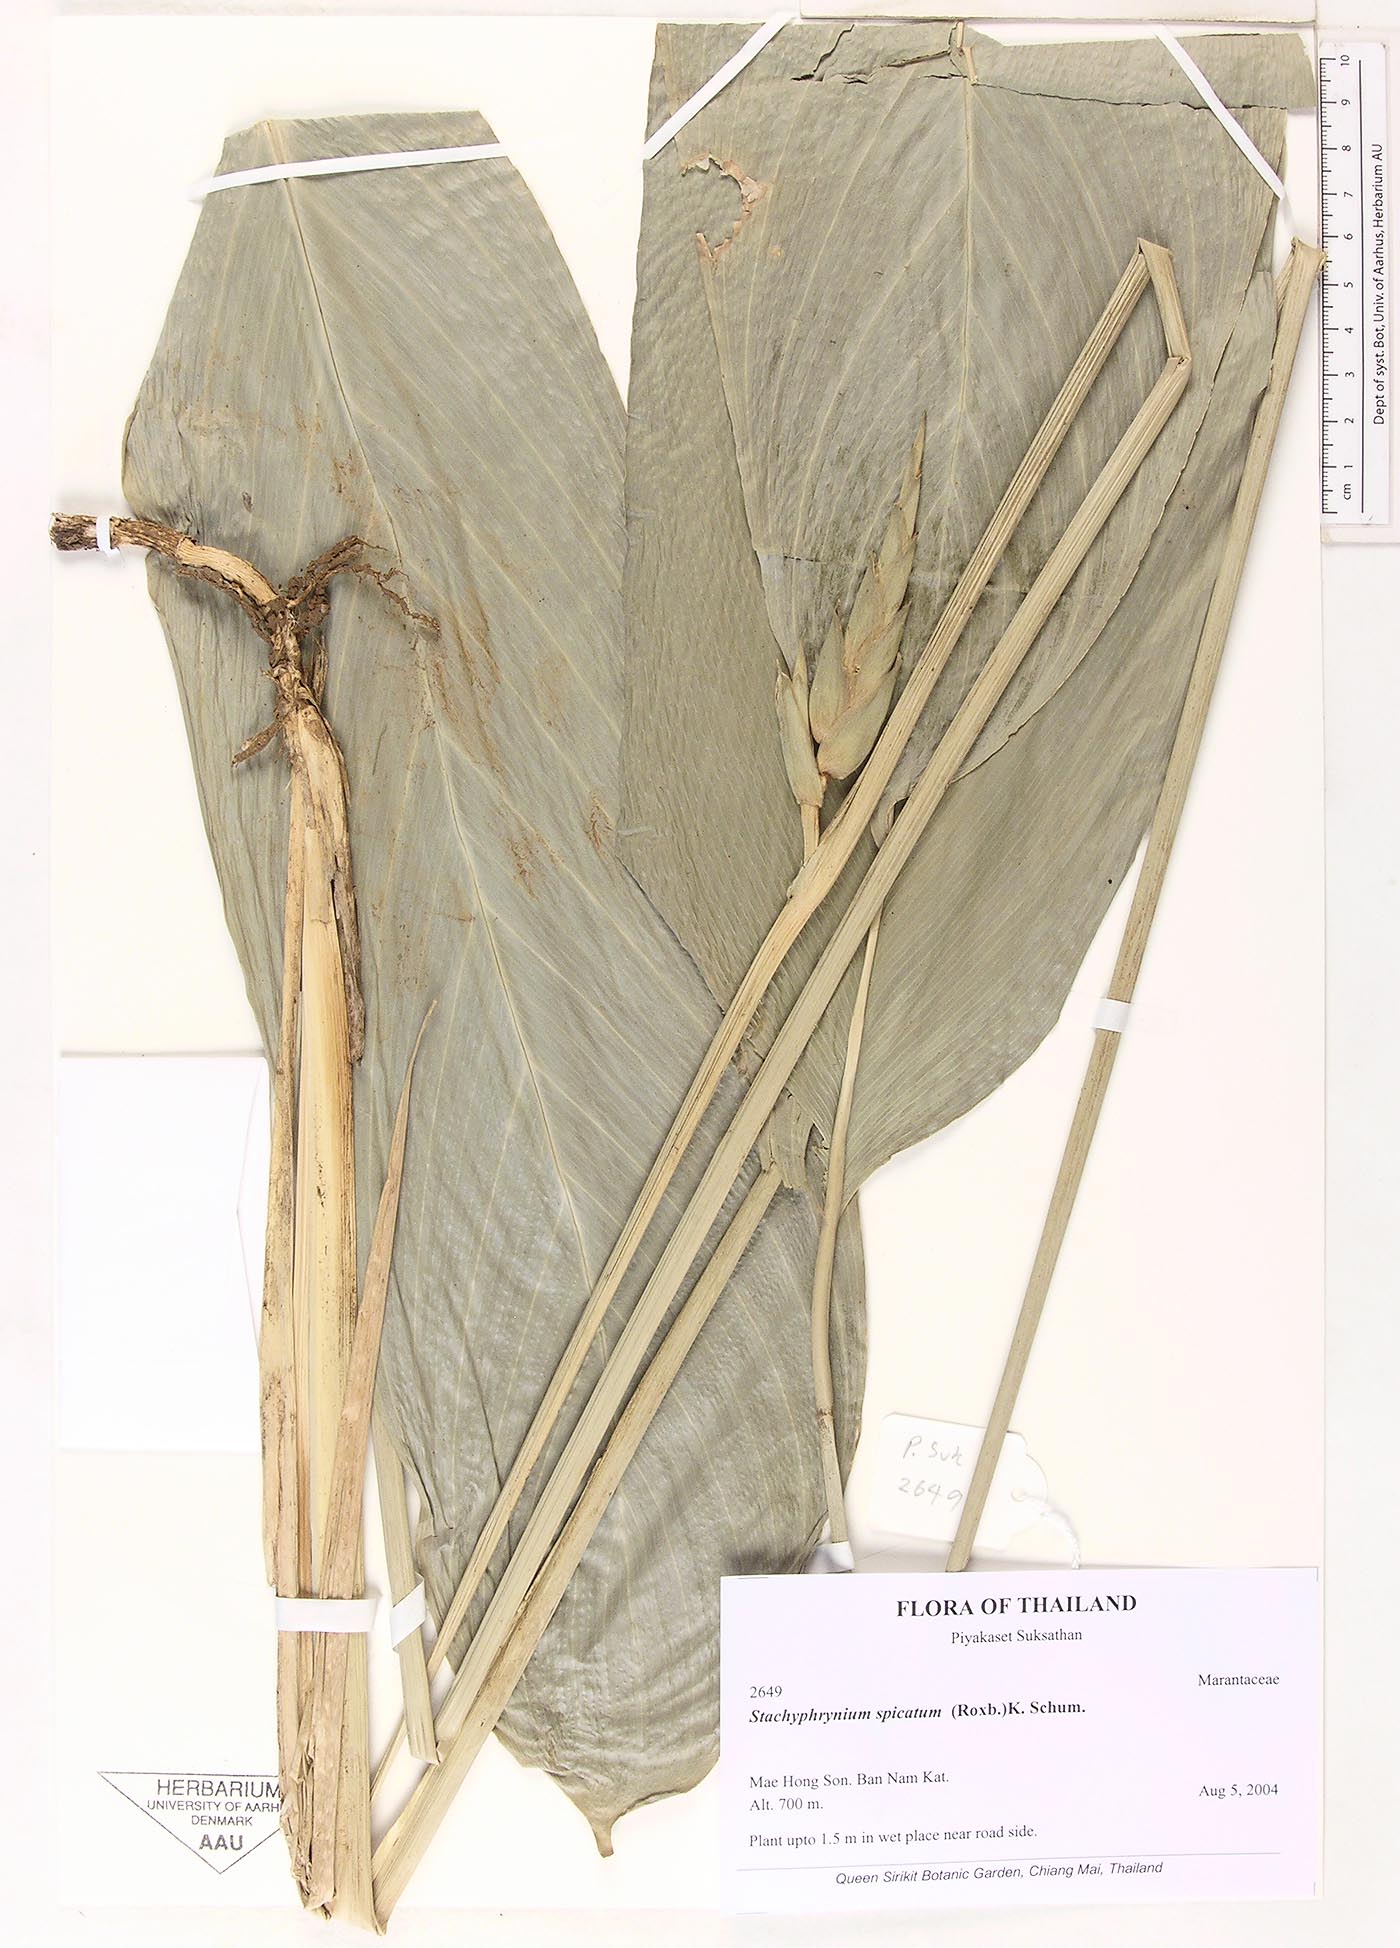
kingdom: Plantae
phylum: Tracheophyta
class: Liliopsida
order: Zingiberales
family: Marantaceae
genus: Stachyphrynium
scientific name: Stachyphrynium spicatum
